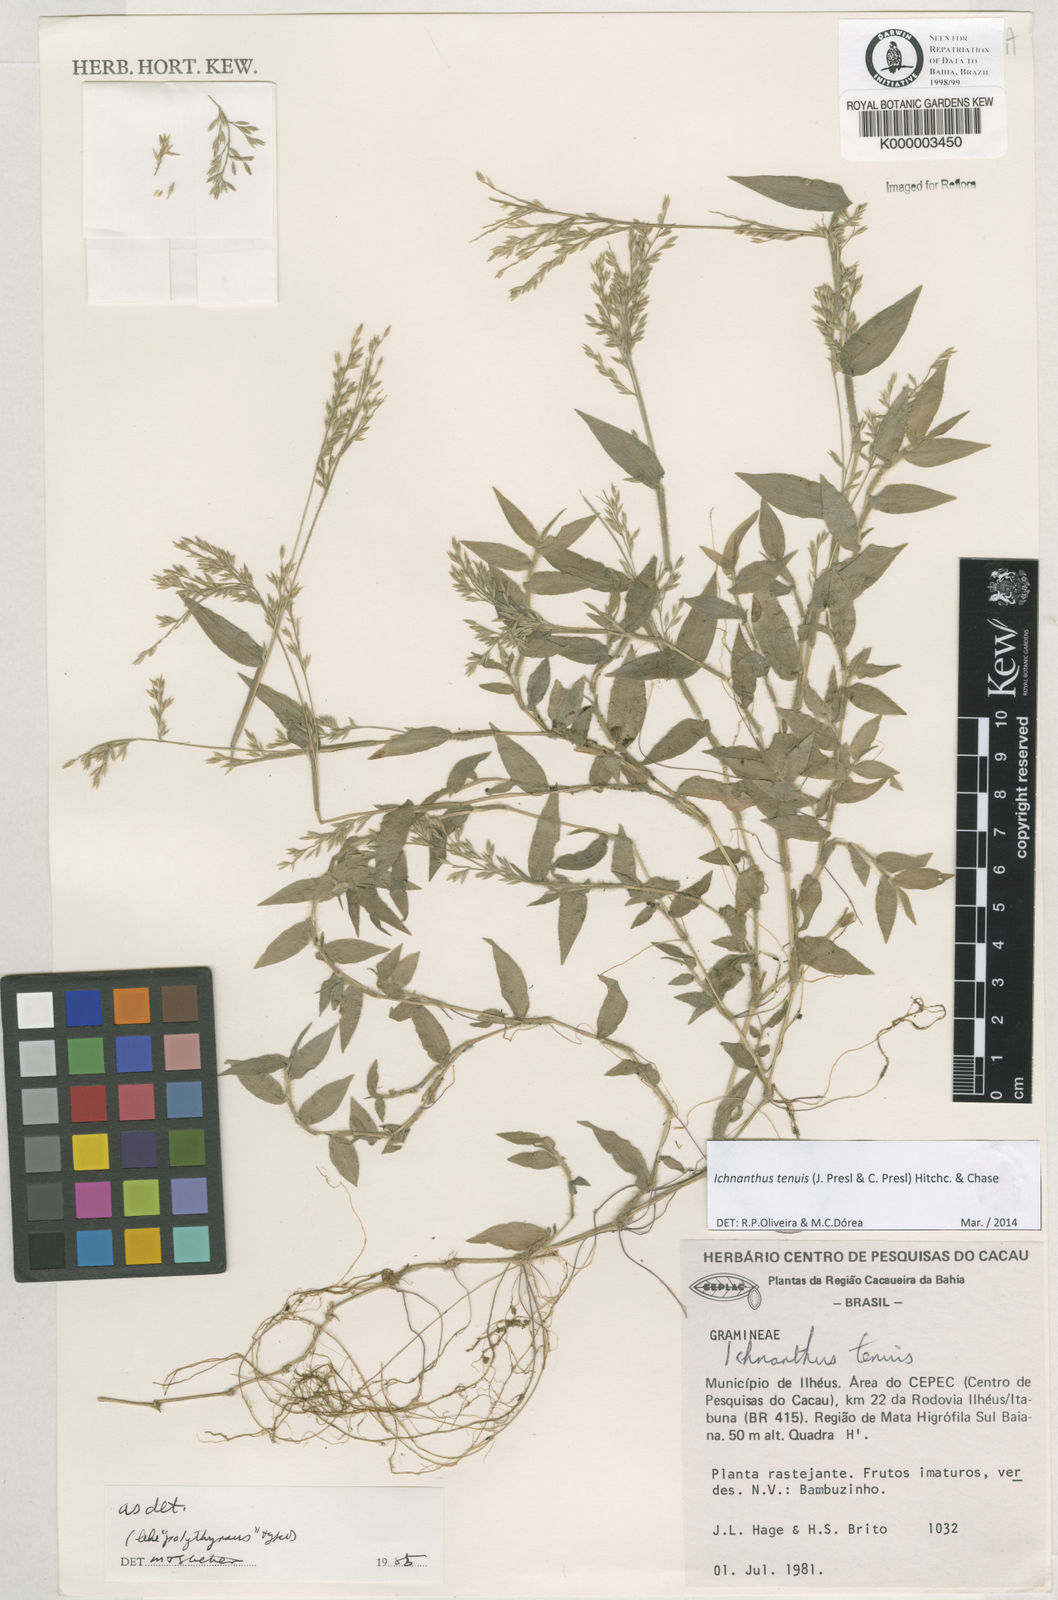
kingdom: Plantae
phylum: Tracheophyta
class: Liliopsida
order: Poales
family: Poaceae
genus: Ichnanthus
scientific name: Ichnanthus tenuis
